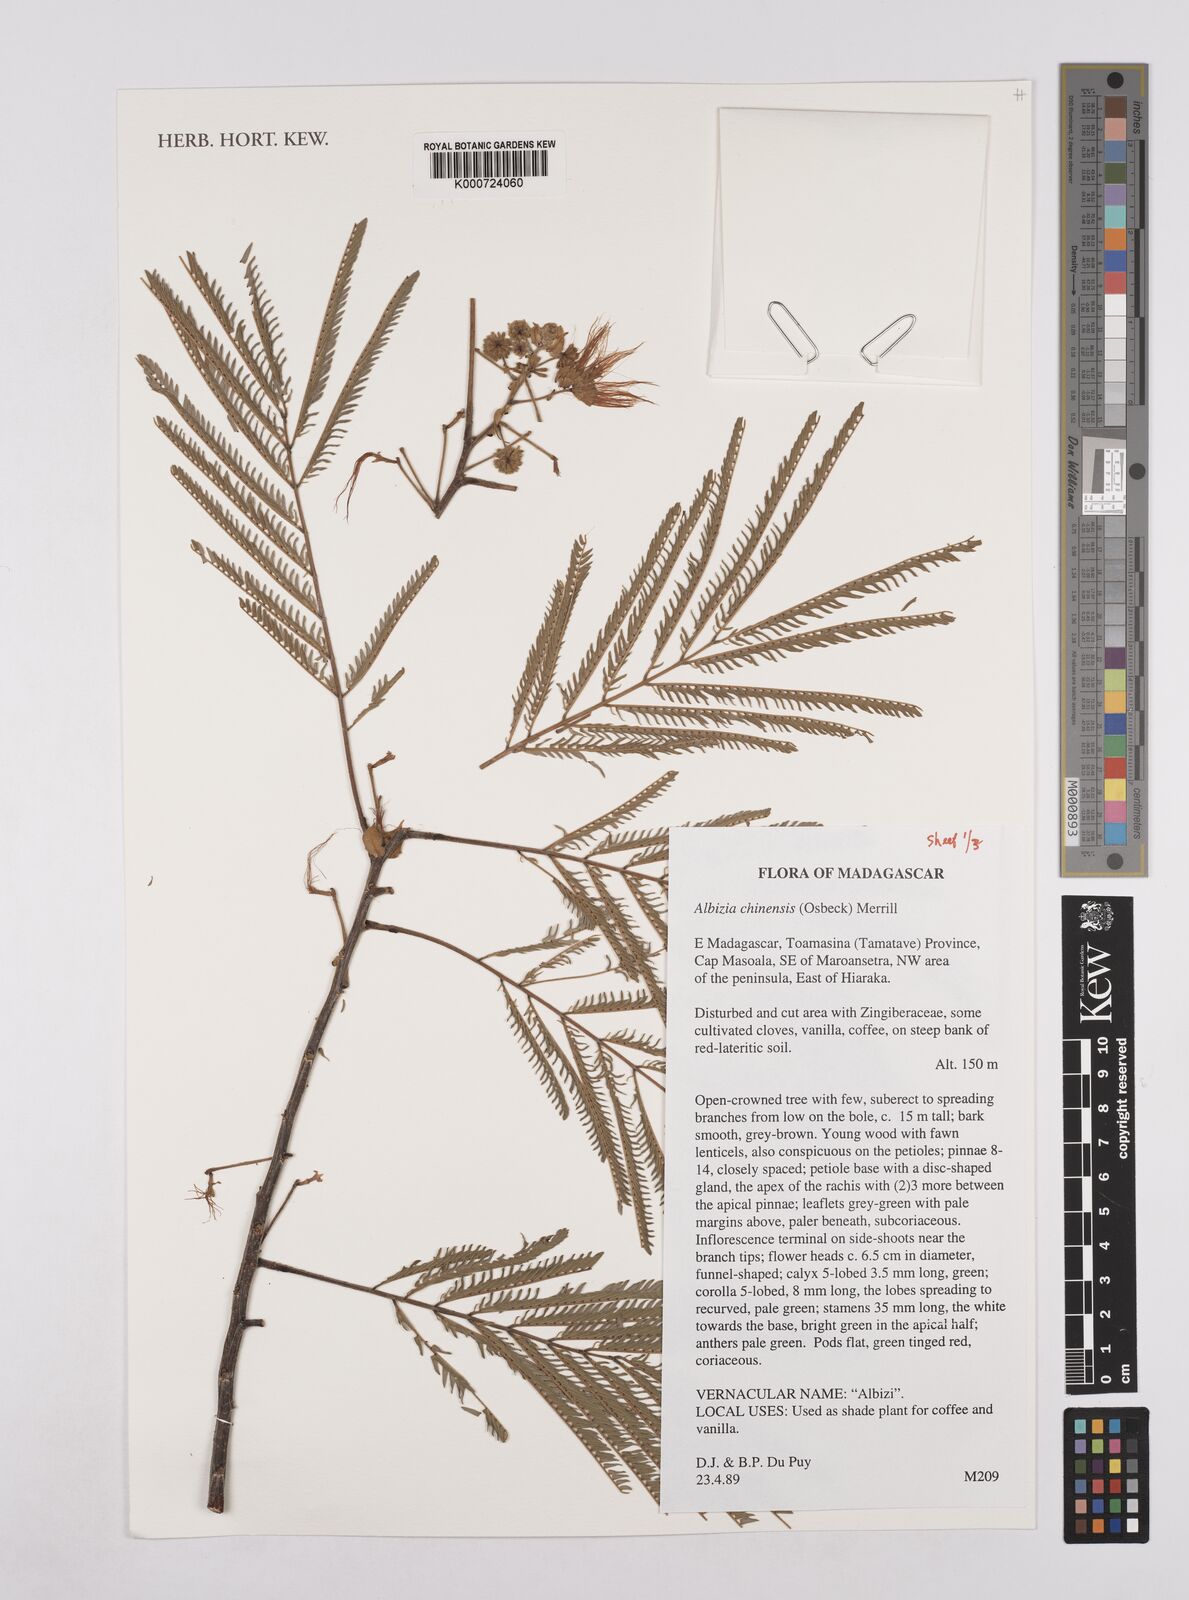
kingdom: Plantae
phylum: Tracheophyta
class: Magnoliopsida
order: Fabales
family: Fabaceae
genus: Albizia
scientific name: Albizia chinensis
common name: Chinese albizia
